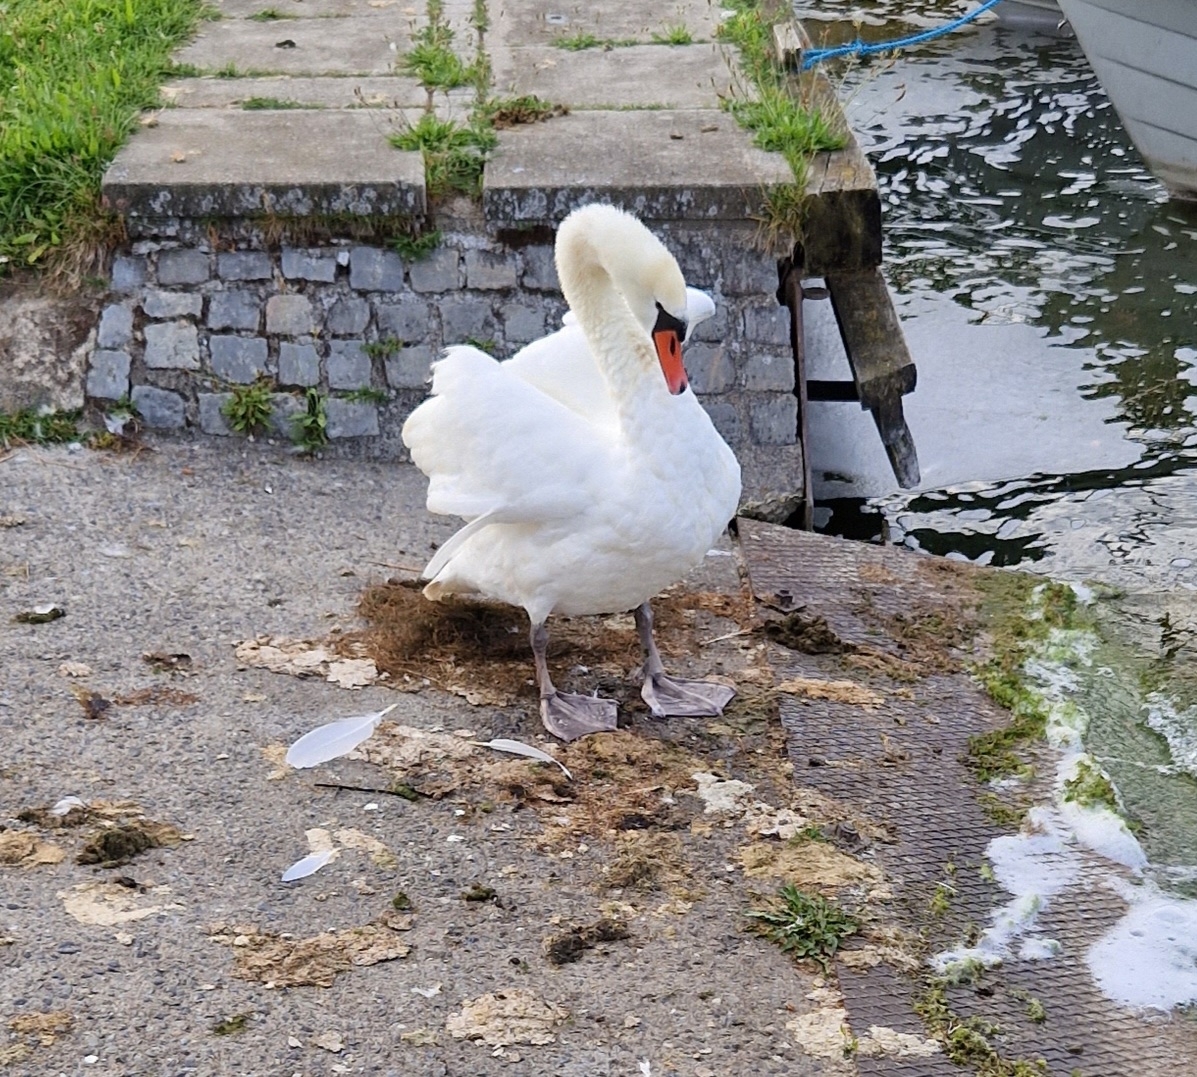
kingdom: Animalia
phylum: Chordata
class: Aves
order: Anseriformes
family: Anatidae
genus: Cygnus
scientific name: Cygnus olor
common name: Knopsvane
